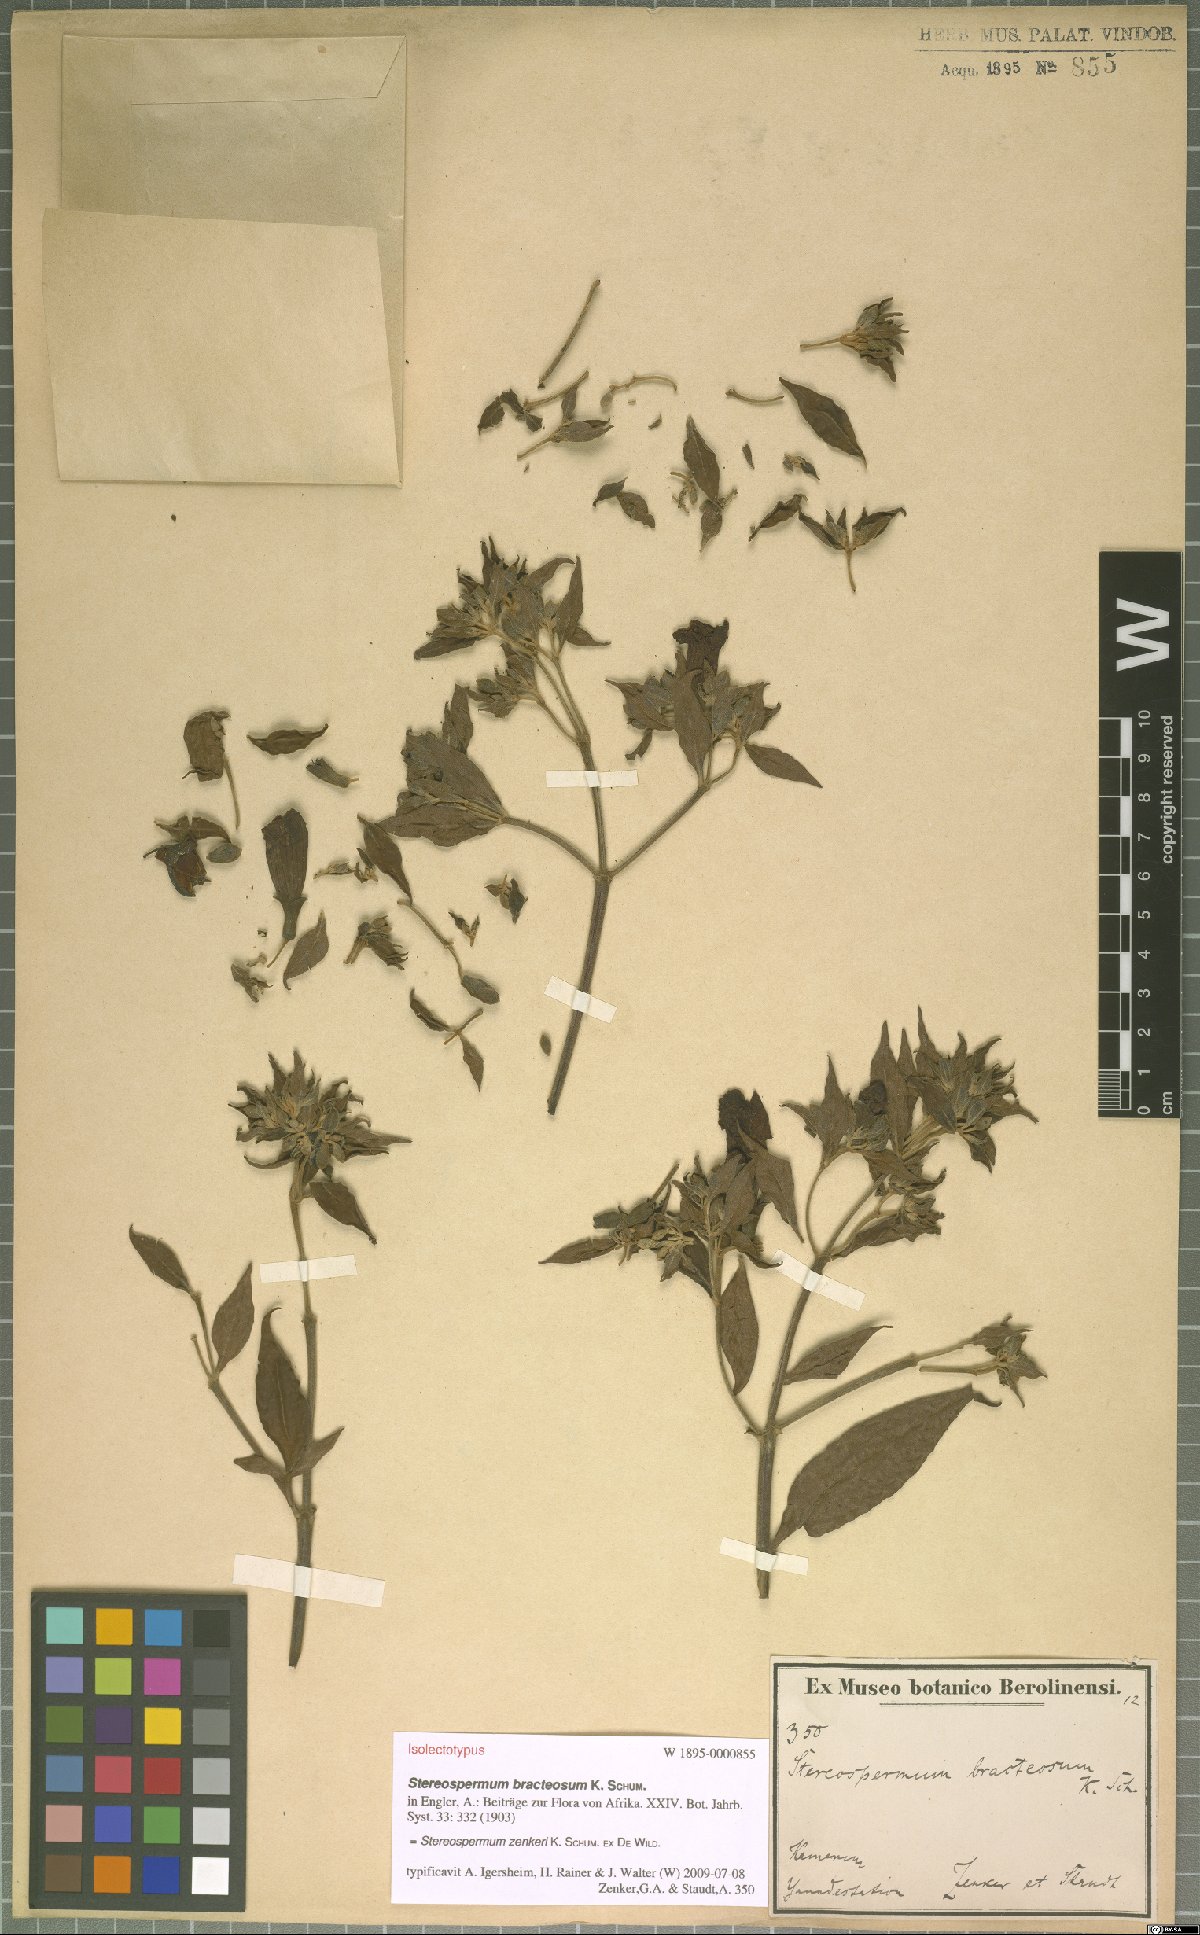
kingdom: Plantae
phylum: Tracheophyta
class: Magnoliopsida
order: Lamiales
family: Bignoniaceae
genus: Stereospermum
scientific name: Stereospermum zenkeri
